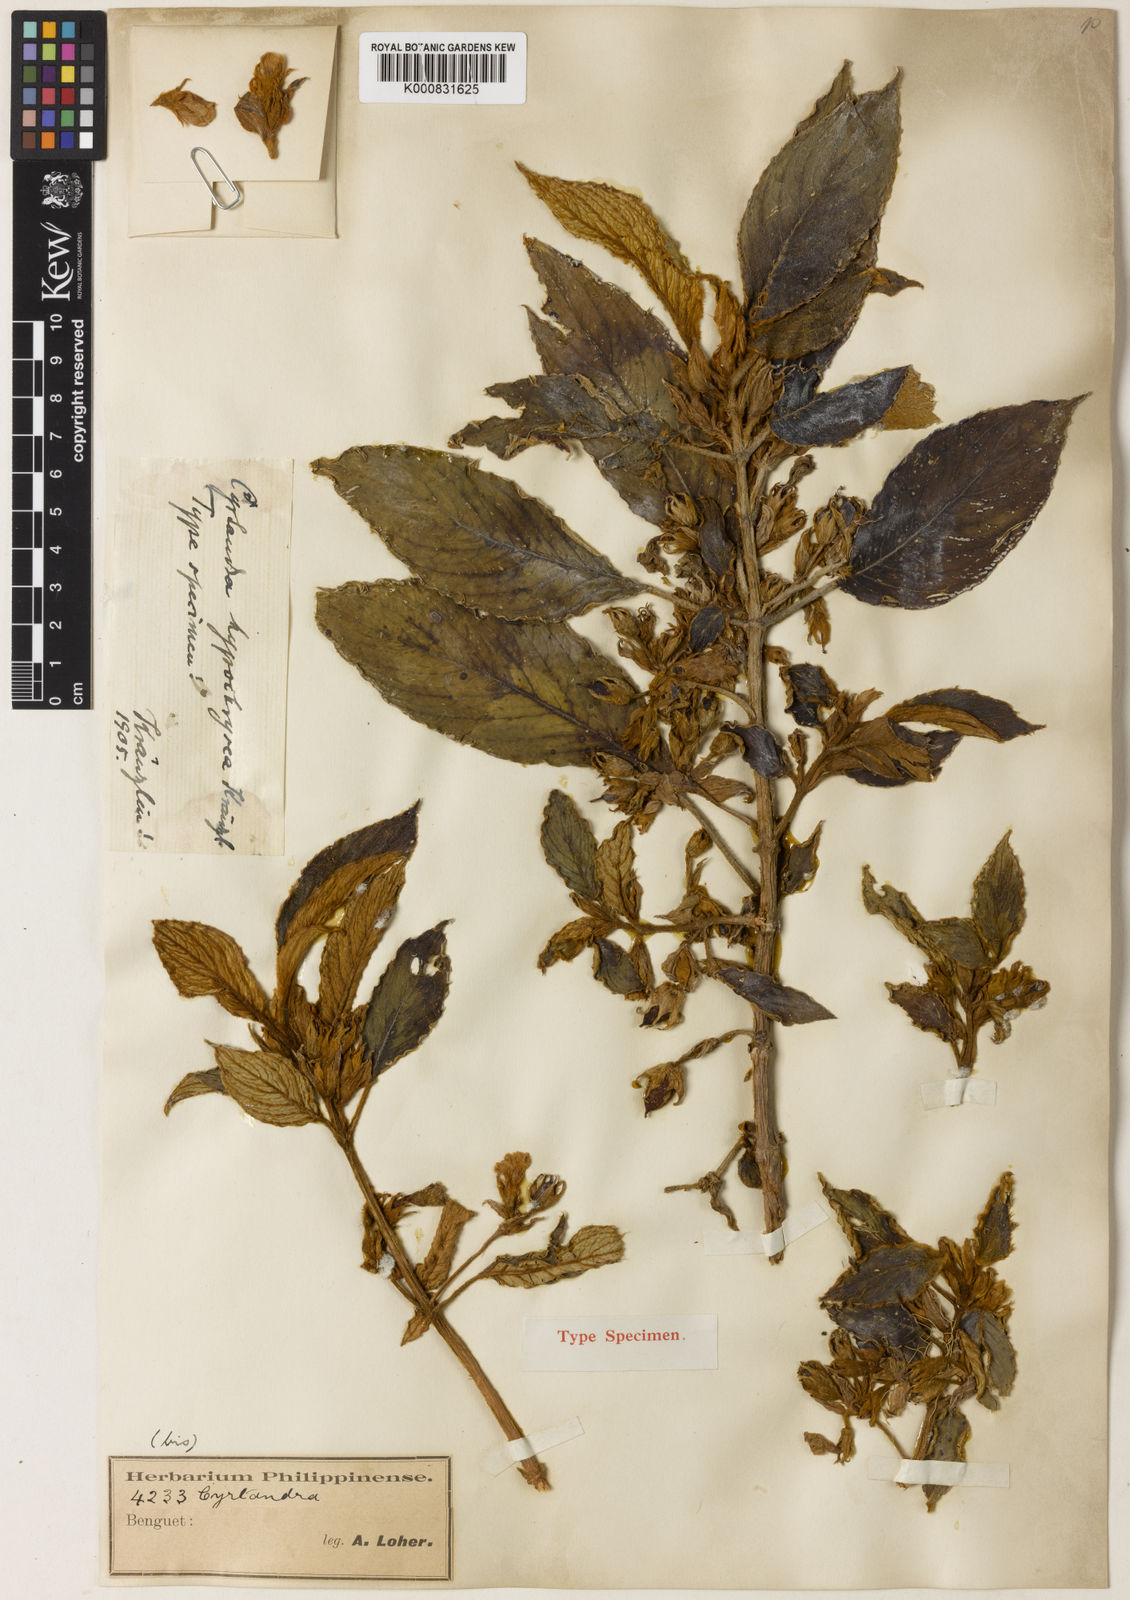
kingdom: Plantae
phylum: Tracheophyta
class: Magnoliopsida
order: Lamiales
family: Gesneriaceae
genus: Cyrtandra
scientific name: Cyrtandra hypochrysea
